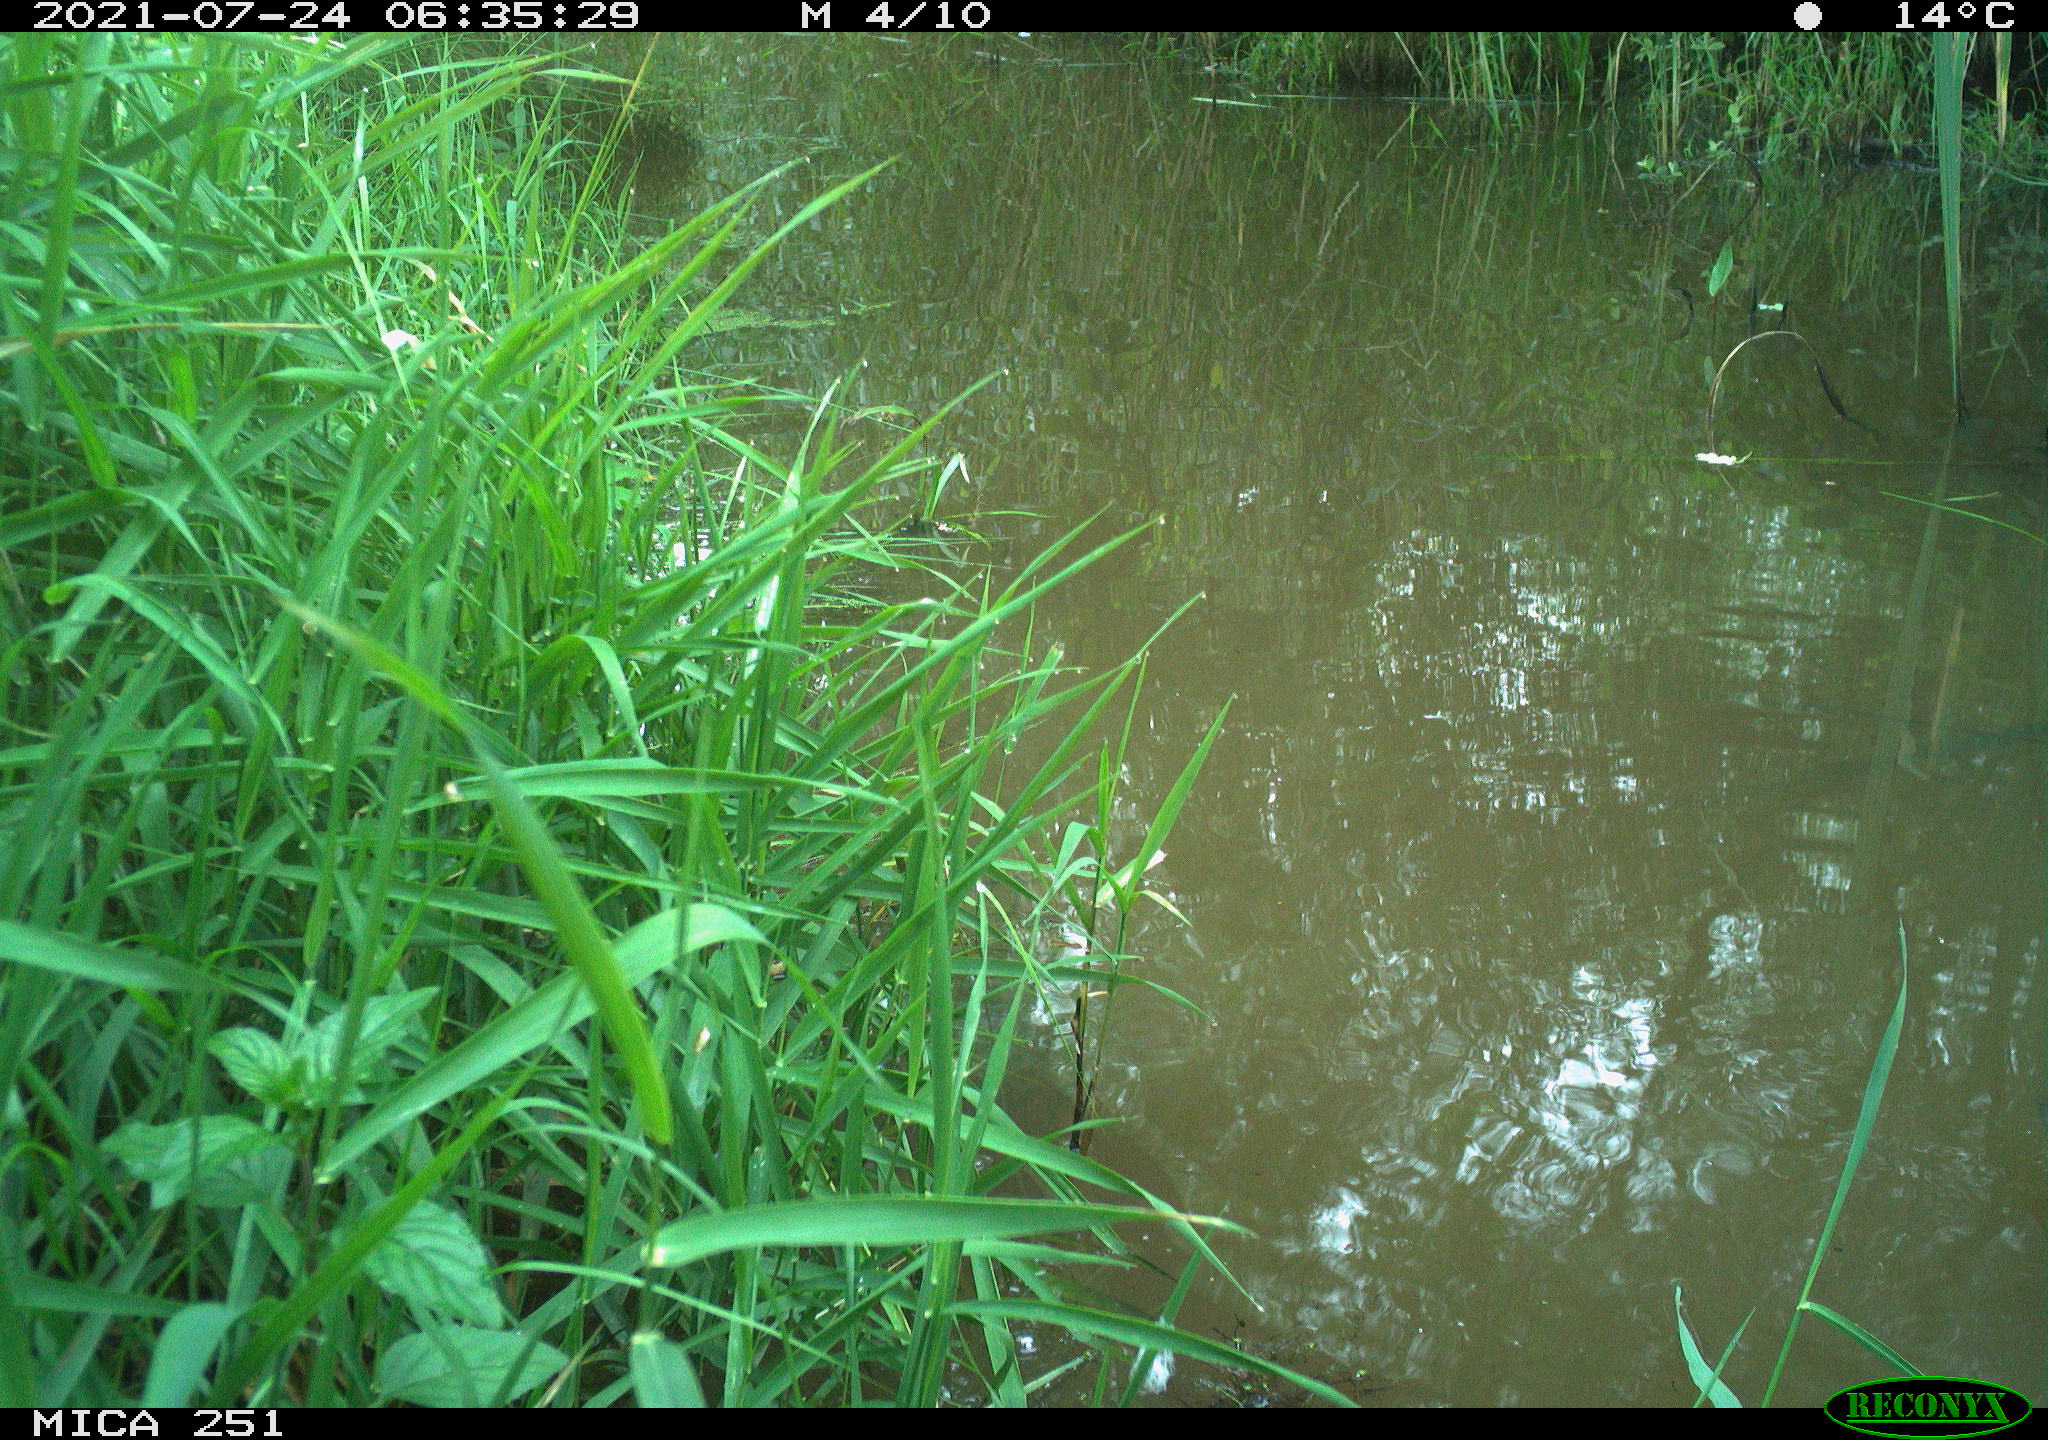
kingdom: Animalia
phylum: Chordata
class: Aves
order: Gruiformes
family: Rallidae
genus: Gallinula
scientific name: Gallinula chloropus
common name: Common moorhen
